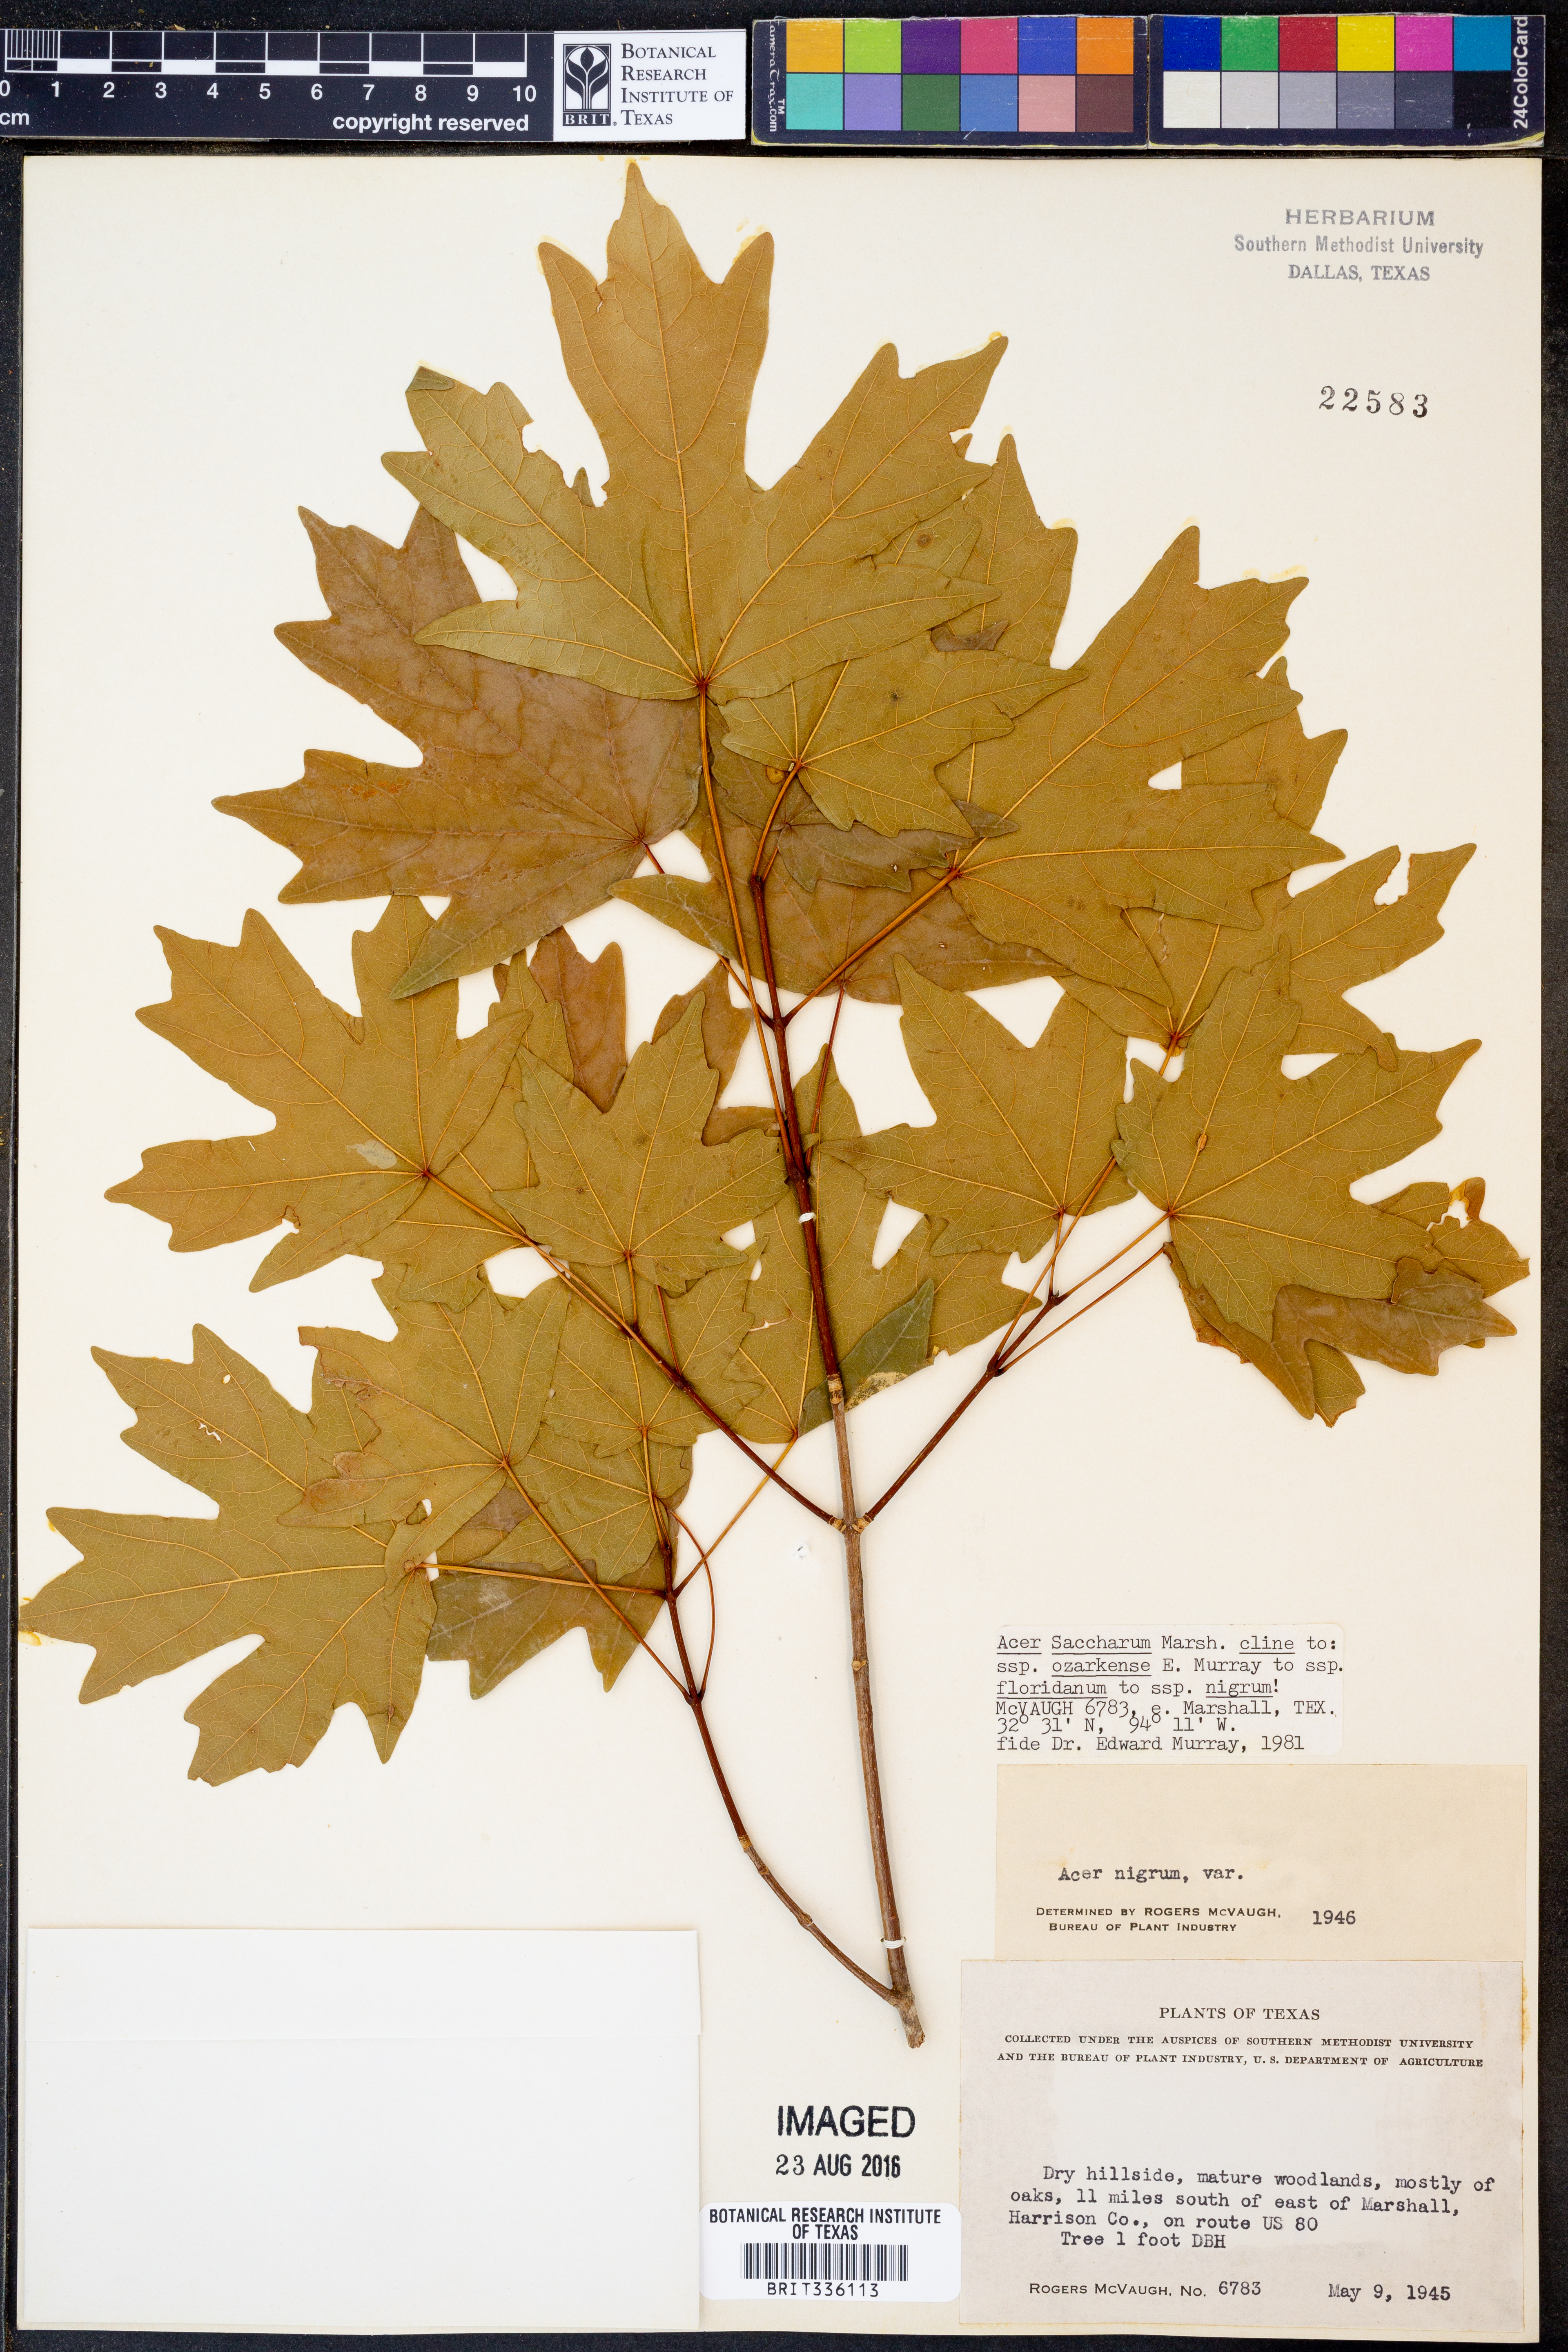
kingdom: Plantae
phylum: Tracheophyta
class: Magnoliopsida
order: Sapindales
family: Sapindaceae
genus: Acer
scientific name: Acer saccharum
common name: Sugar maple
